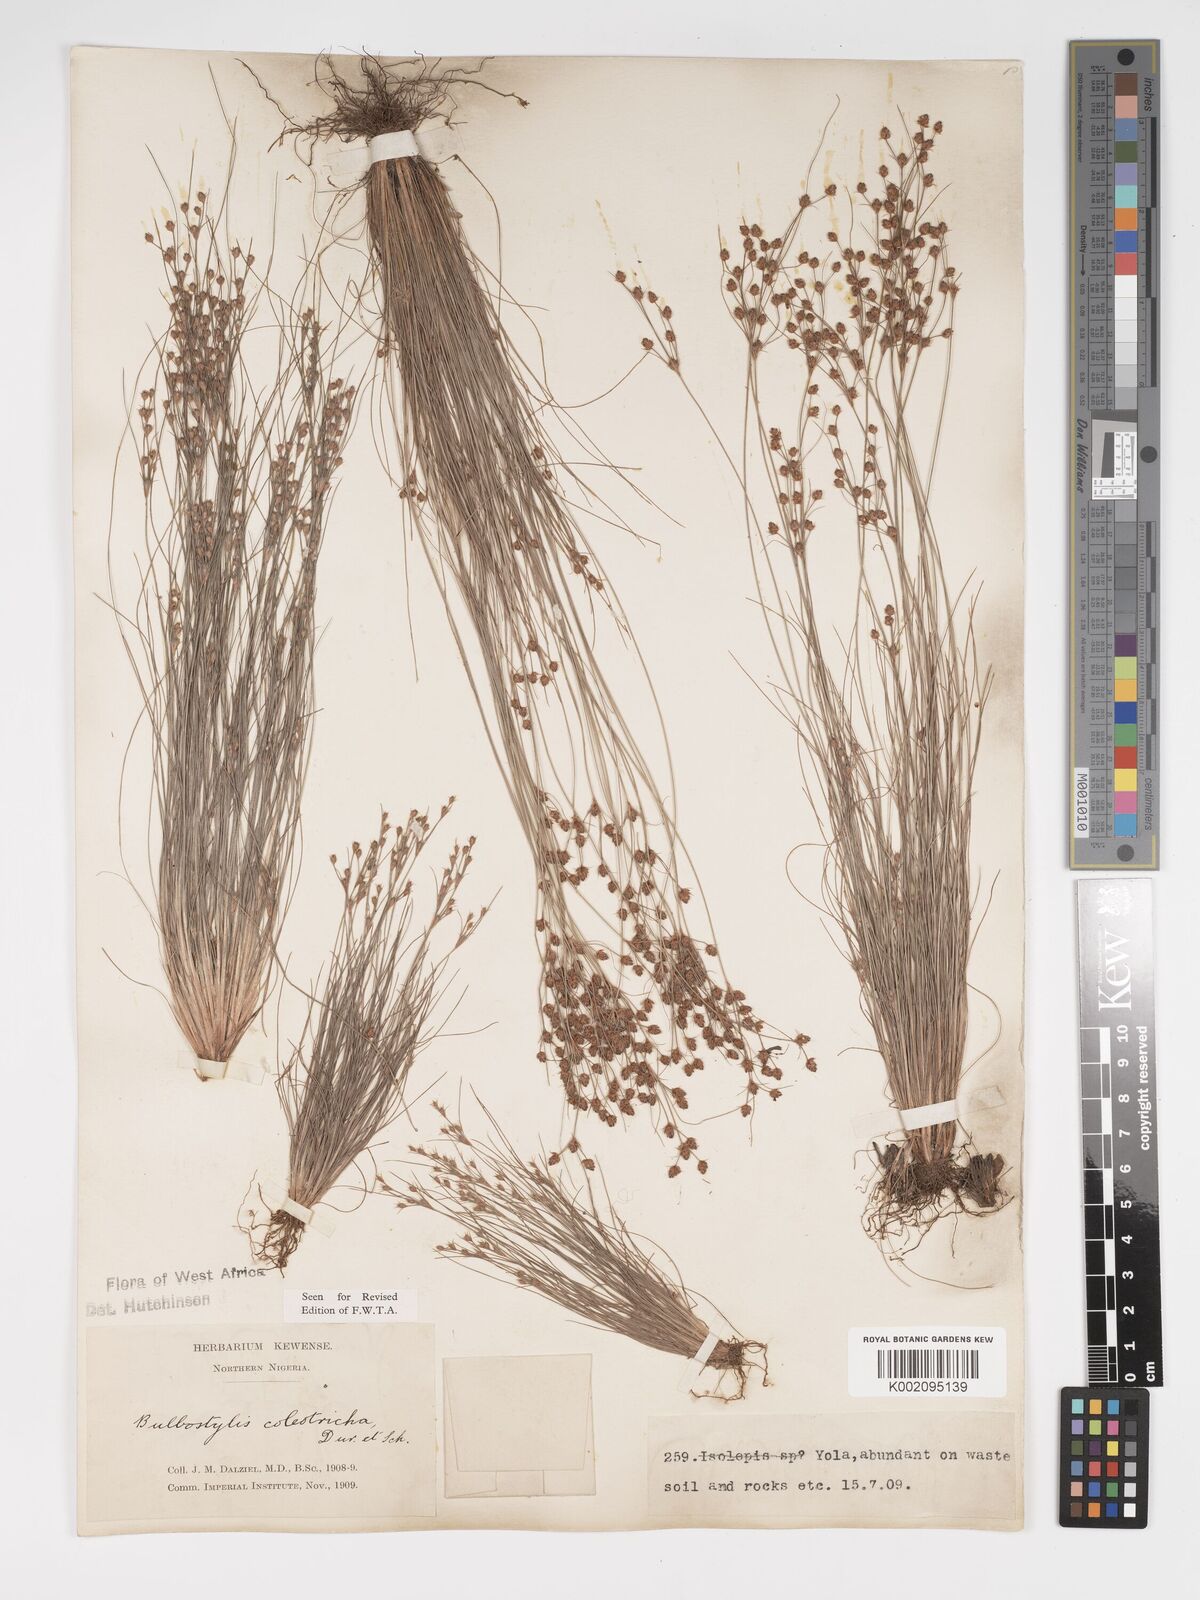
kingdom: Plantae
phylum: Tracheophyta
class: Liliopsida
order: Poales
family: Cyperaceae
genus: Bulbostylis
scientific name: Bulbostylis coleotricha
